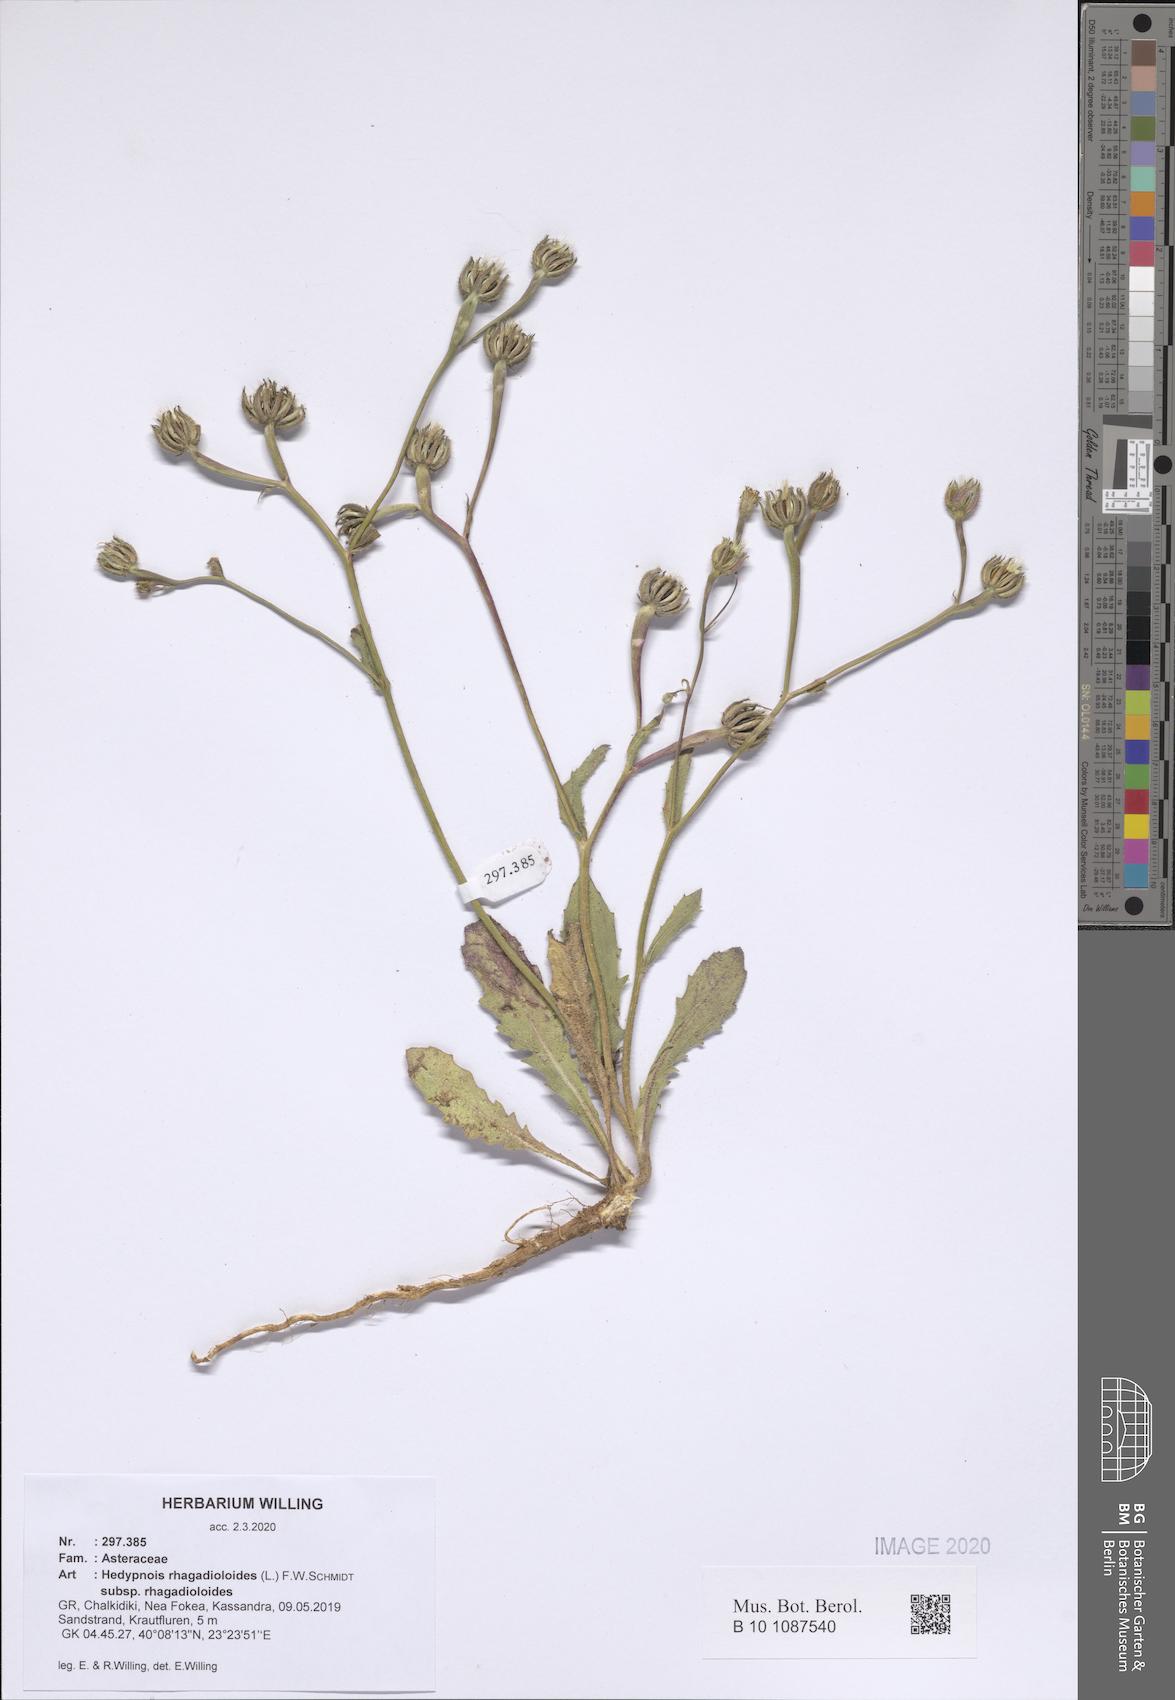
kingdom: Plantae
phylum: Tracheophyta
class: Magnoliopsida
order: Asterales
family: Asteraceae
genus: Hedypnois
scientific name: Hedypnois rhagadioloides
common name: Cretan weed
